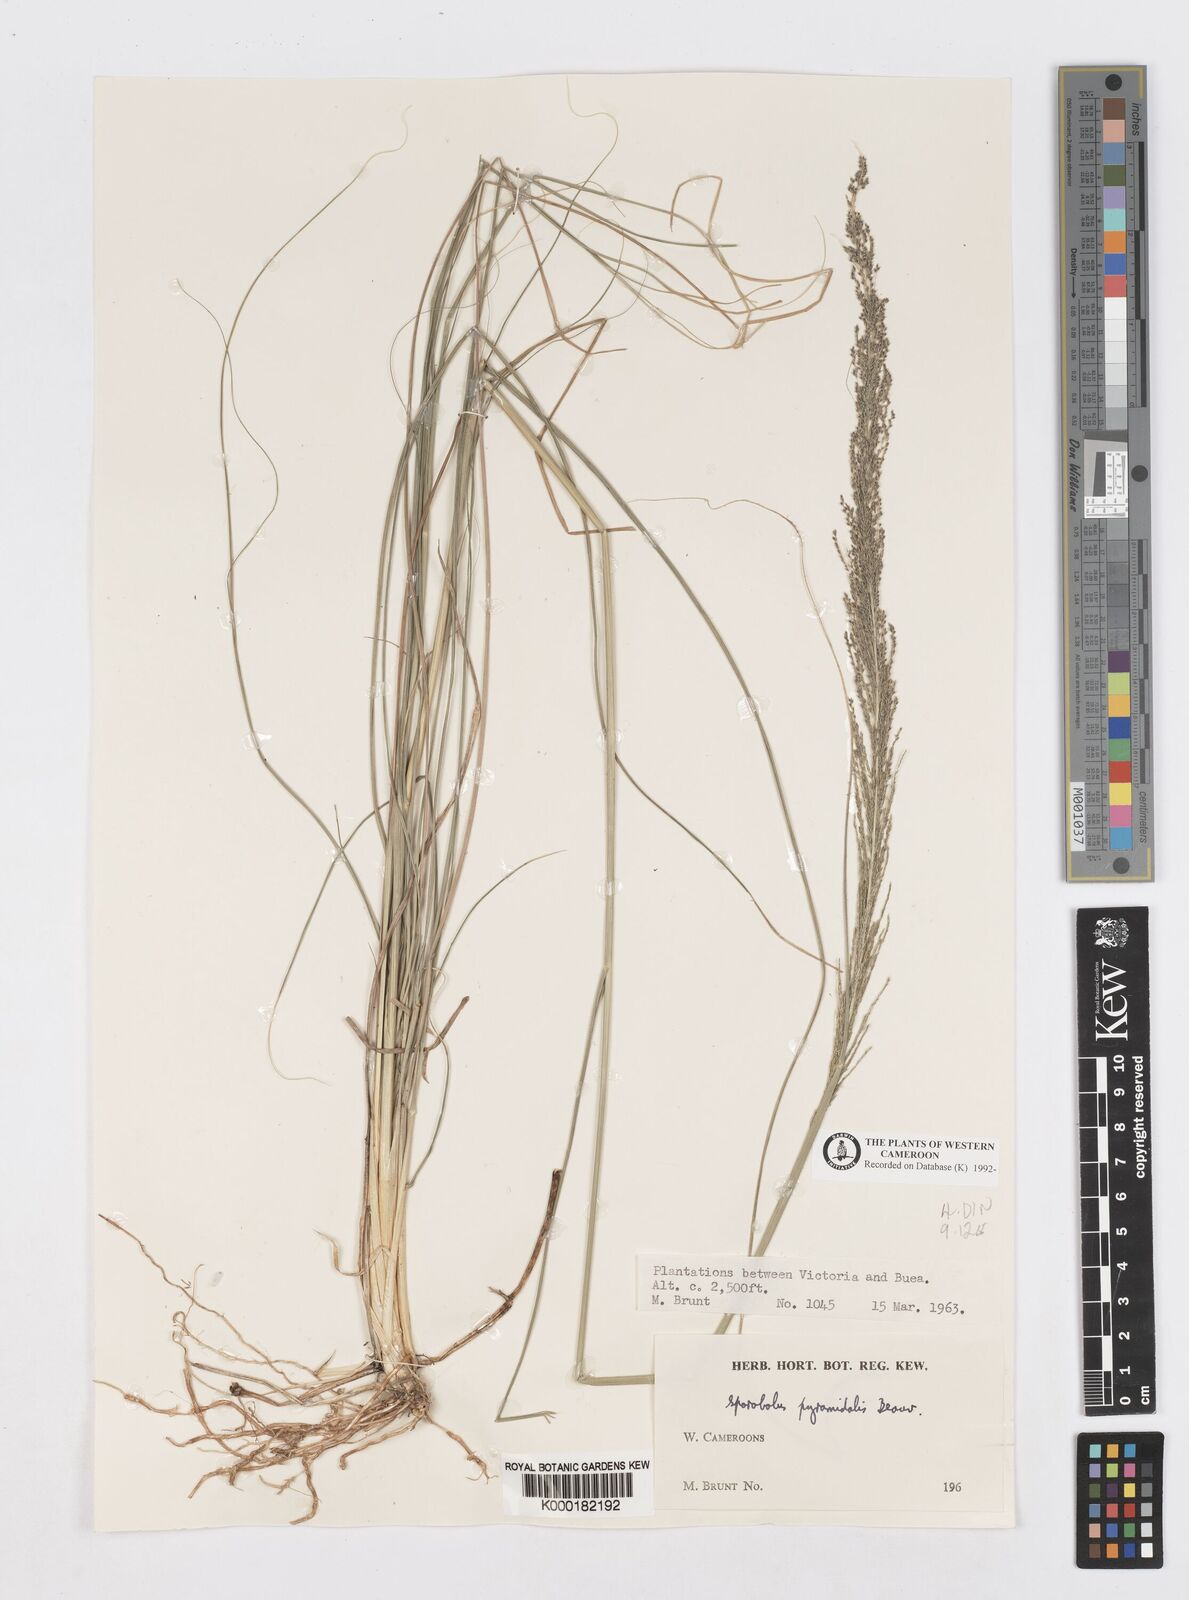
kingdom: Plantae
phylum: Tracheophyta
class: Liliopsida
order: Poales
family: Poaceae
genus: Sporobolus
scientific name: Sporobolus pyramidalis
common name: West indian dropseed
